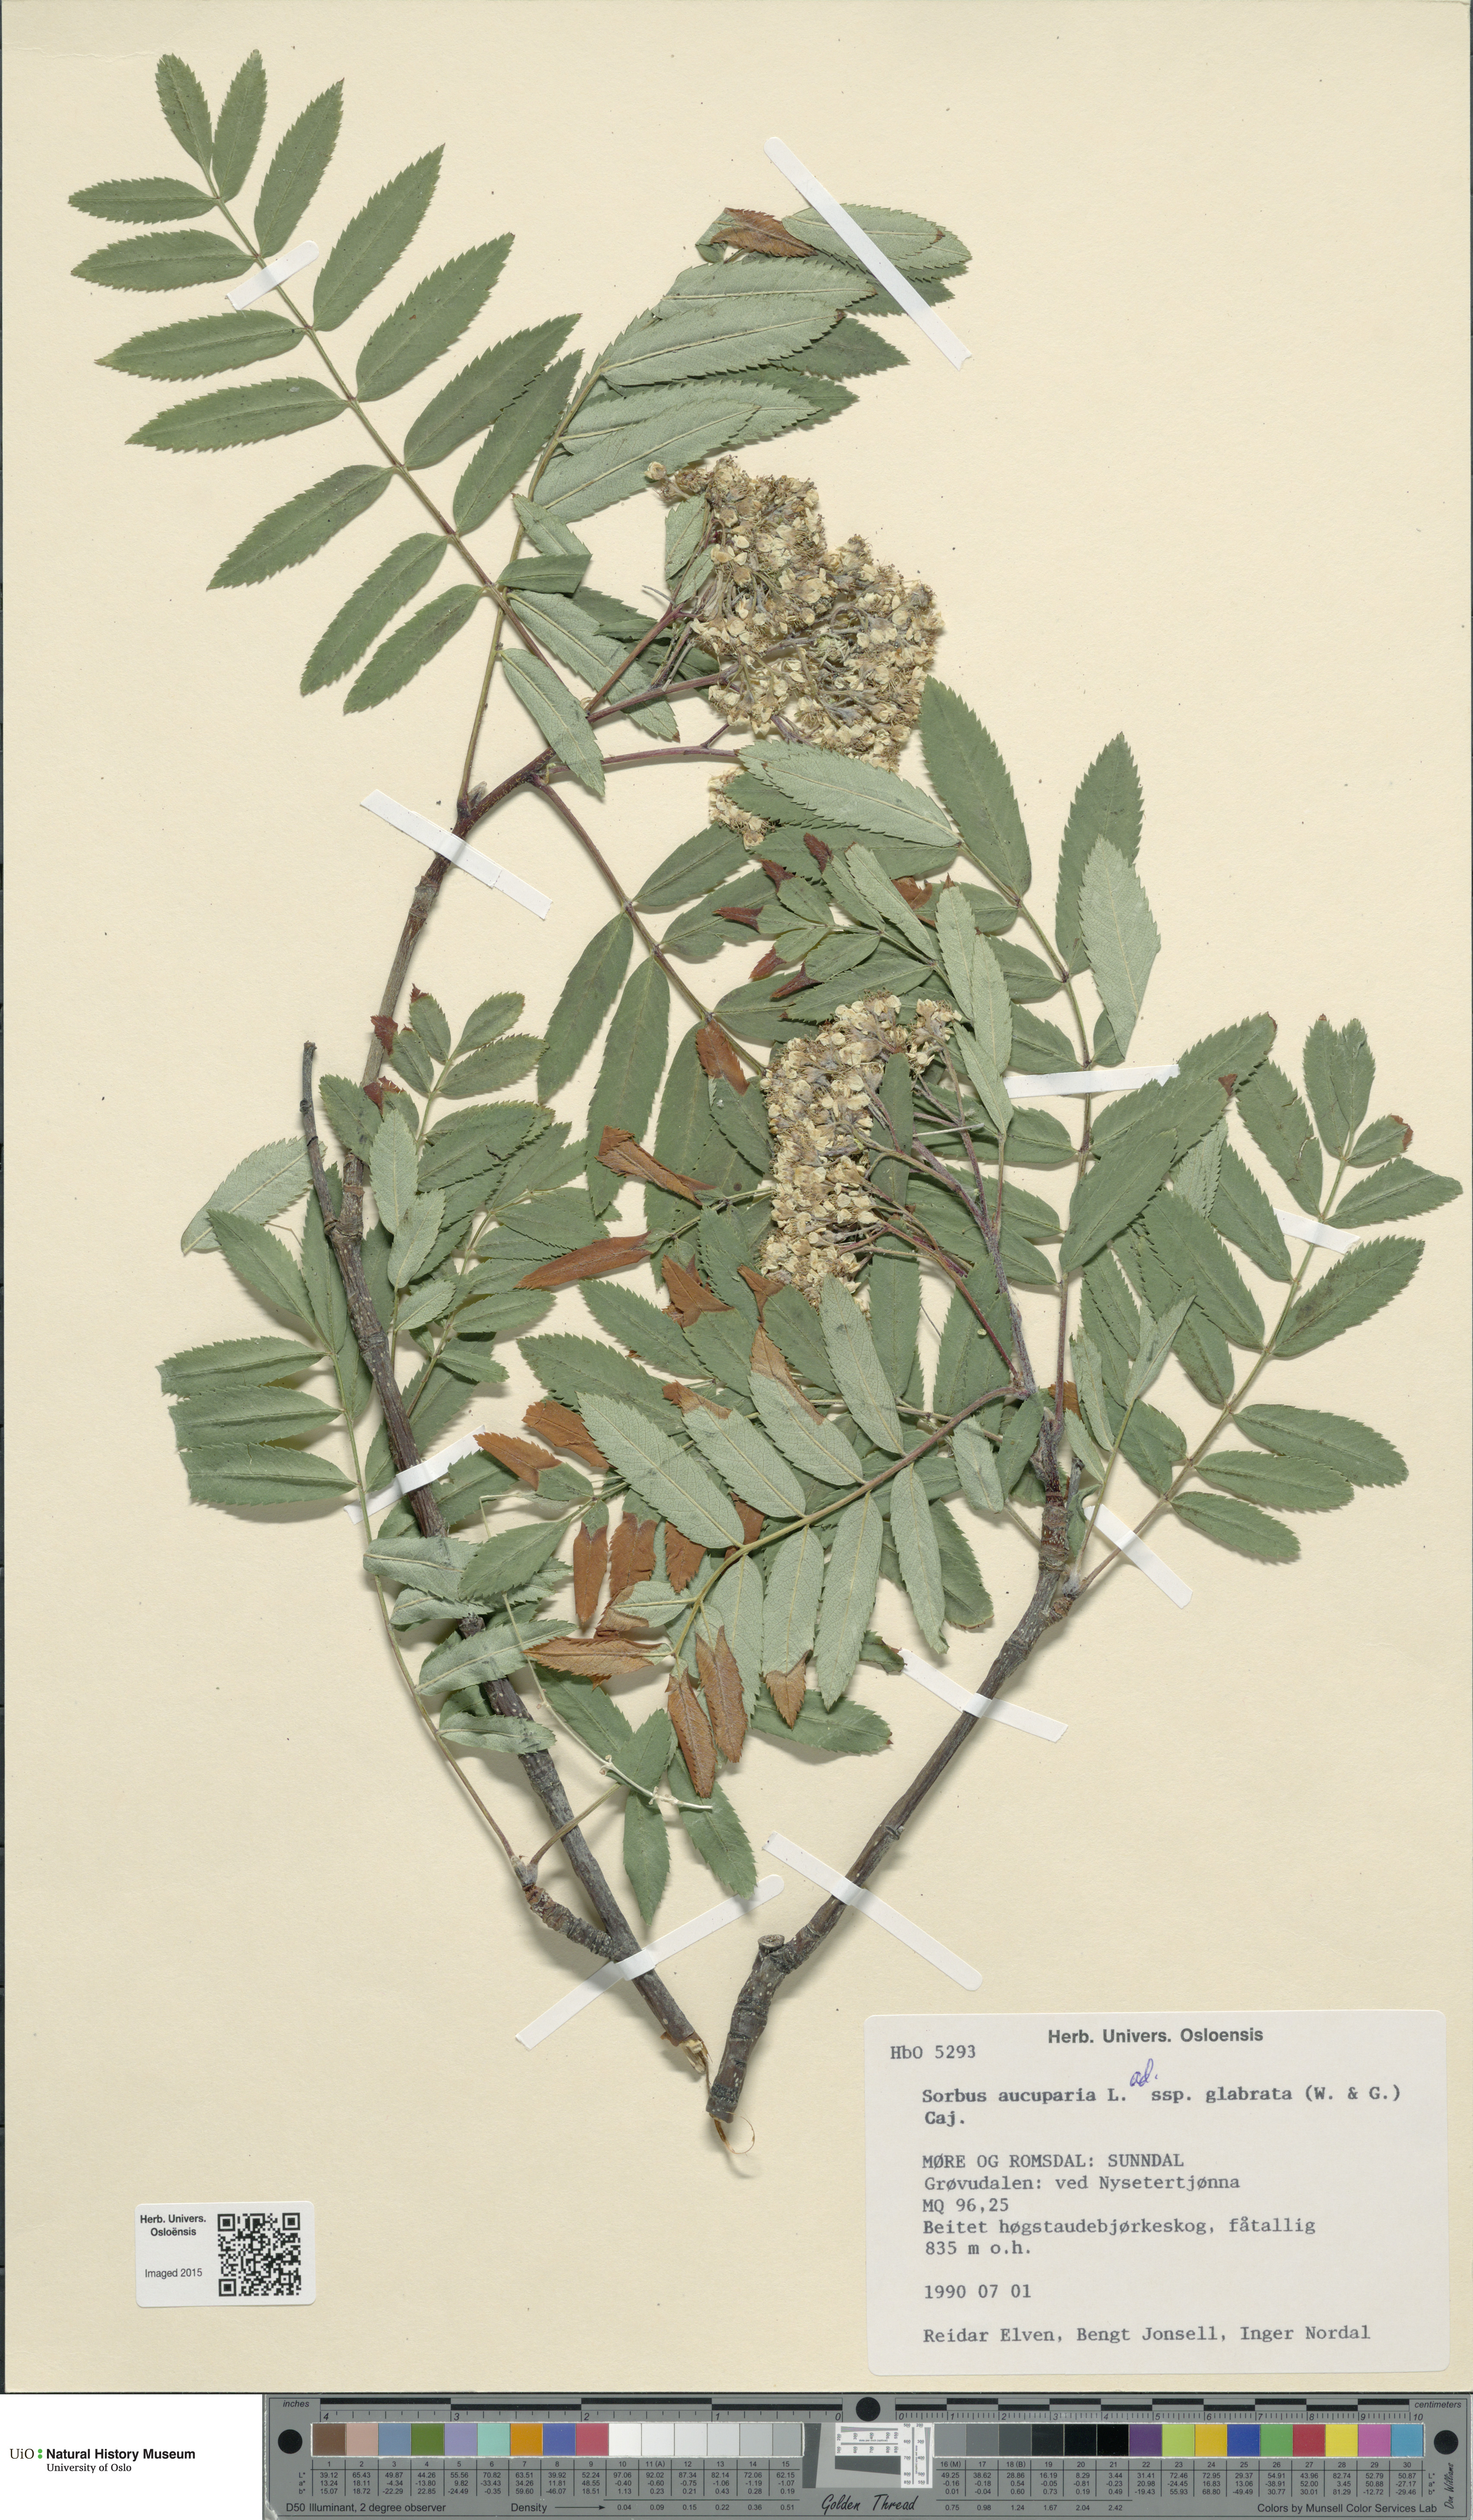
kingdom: Plantae
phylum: Tracheophyta
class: Magnoliopsida
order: Rosales
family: Rosaceae
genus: Sorbus
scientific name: Sorbus aucuparia
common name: Rowan
